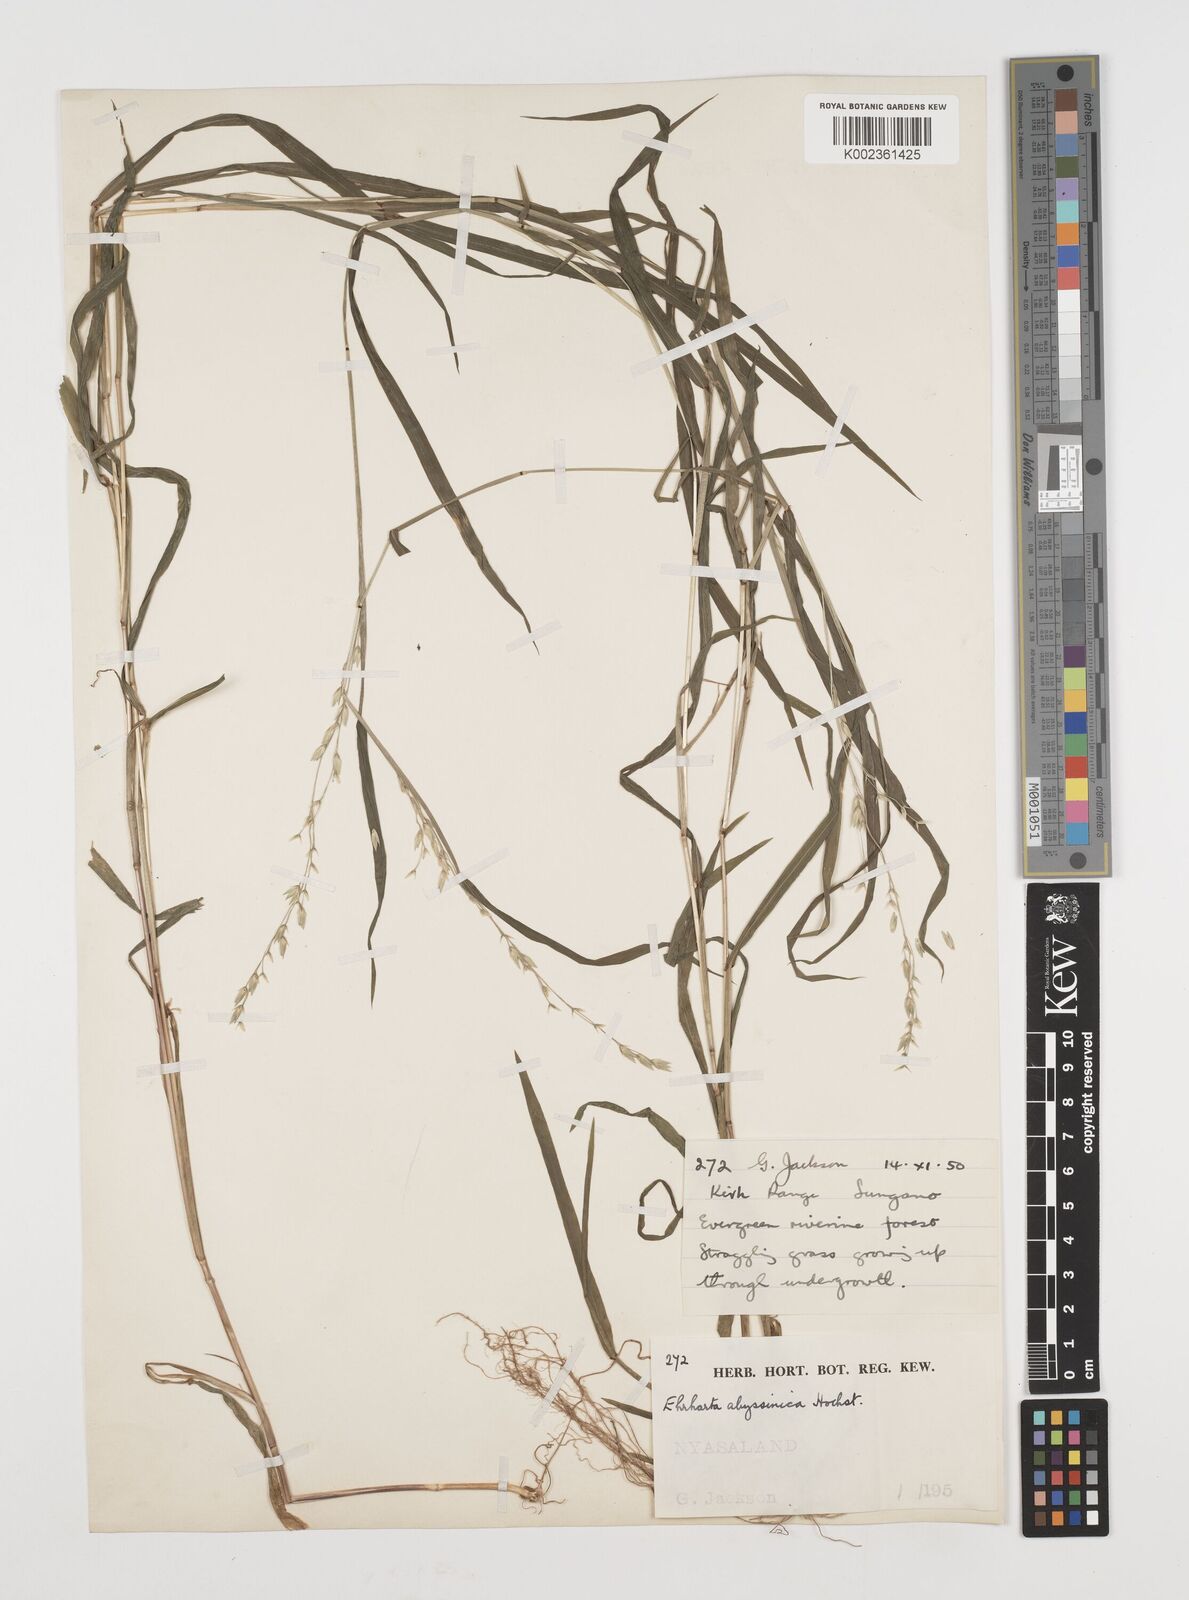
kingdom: Plantae
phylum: Tracheophyta
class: Liliopsida
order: Poales
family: Poaceae
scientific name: Poaceae
